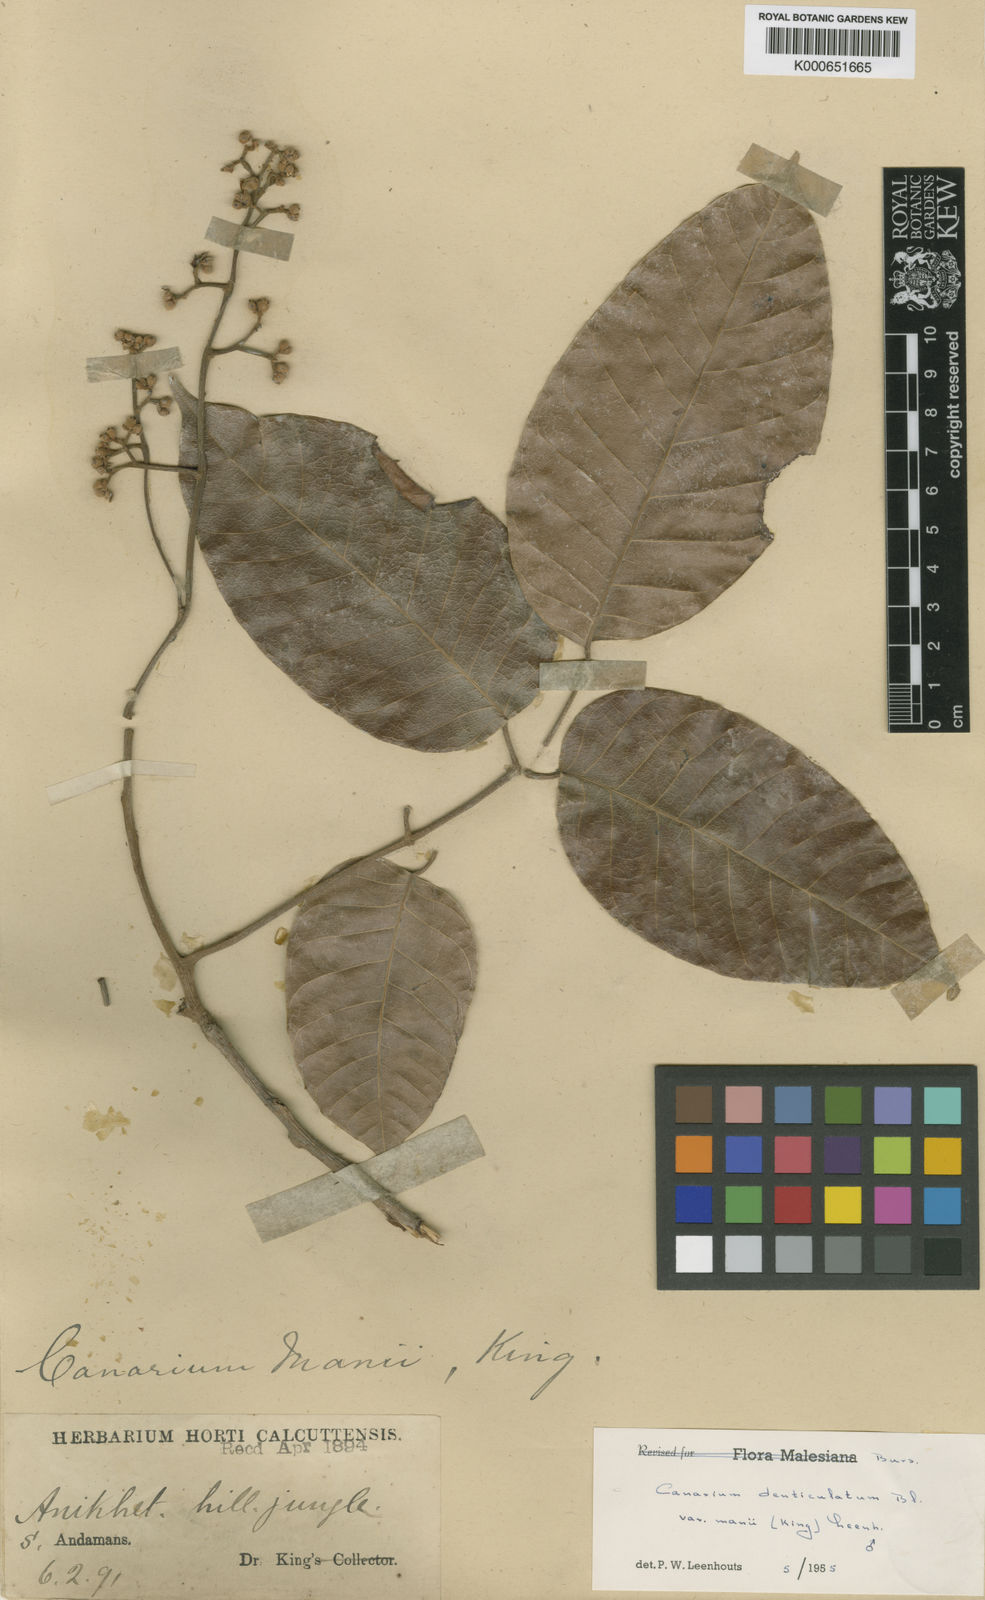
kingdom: Plantae
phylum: Tracheophyta
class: Magnoliopsida
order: Sapindales
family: Burseraceae
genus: Canarium
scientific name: Canarium manii
